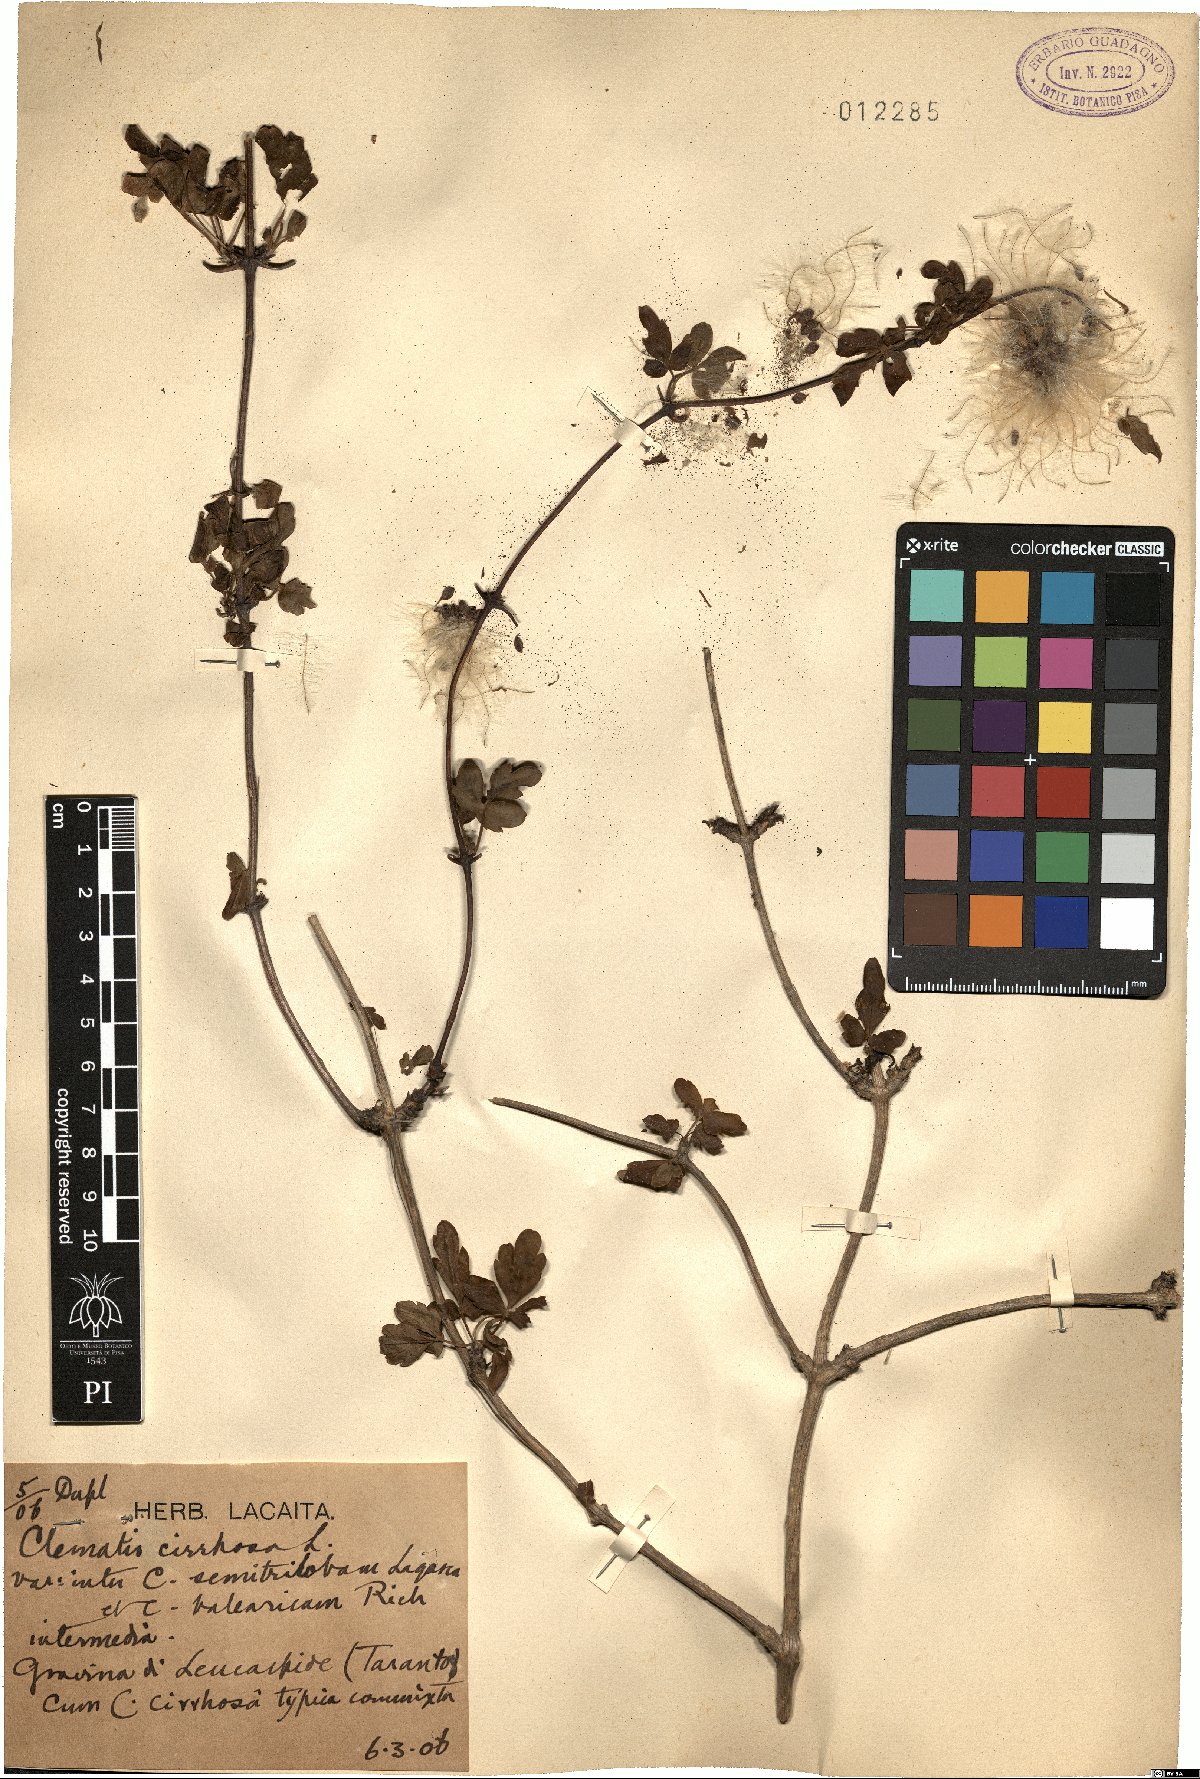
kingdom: Plantae
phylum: Tracheophyta
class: Magnoliopsida
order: Ranunculales
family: Ranunculaceae
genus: Clematis
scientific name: Clematis cirrhosa
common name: Early virgin's-bower
